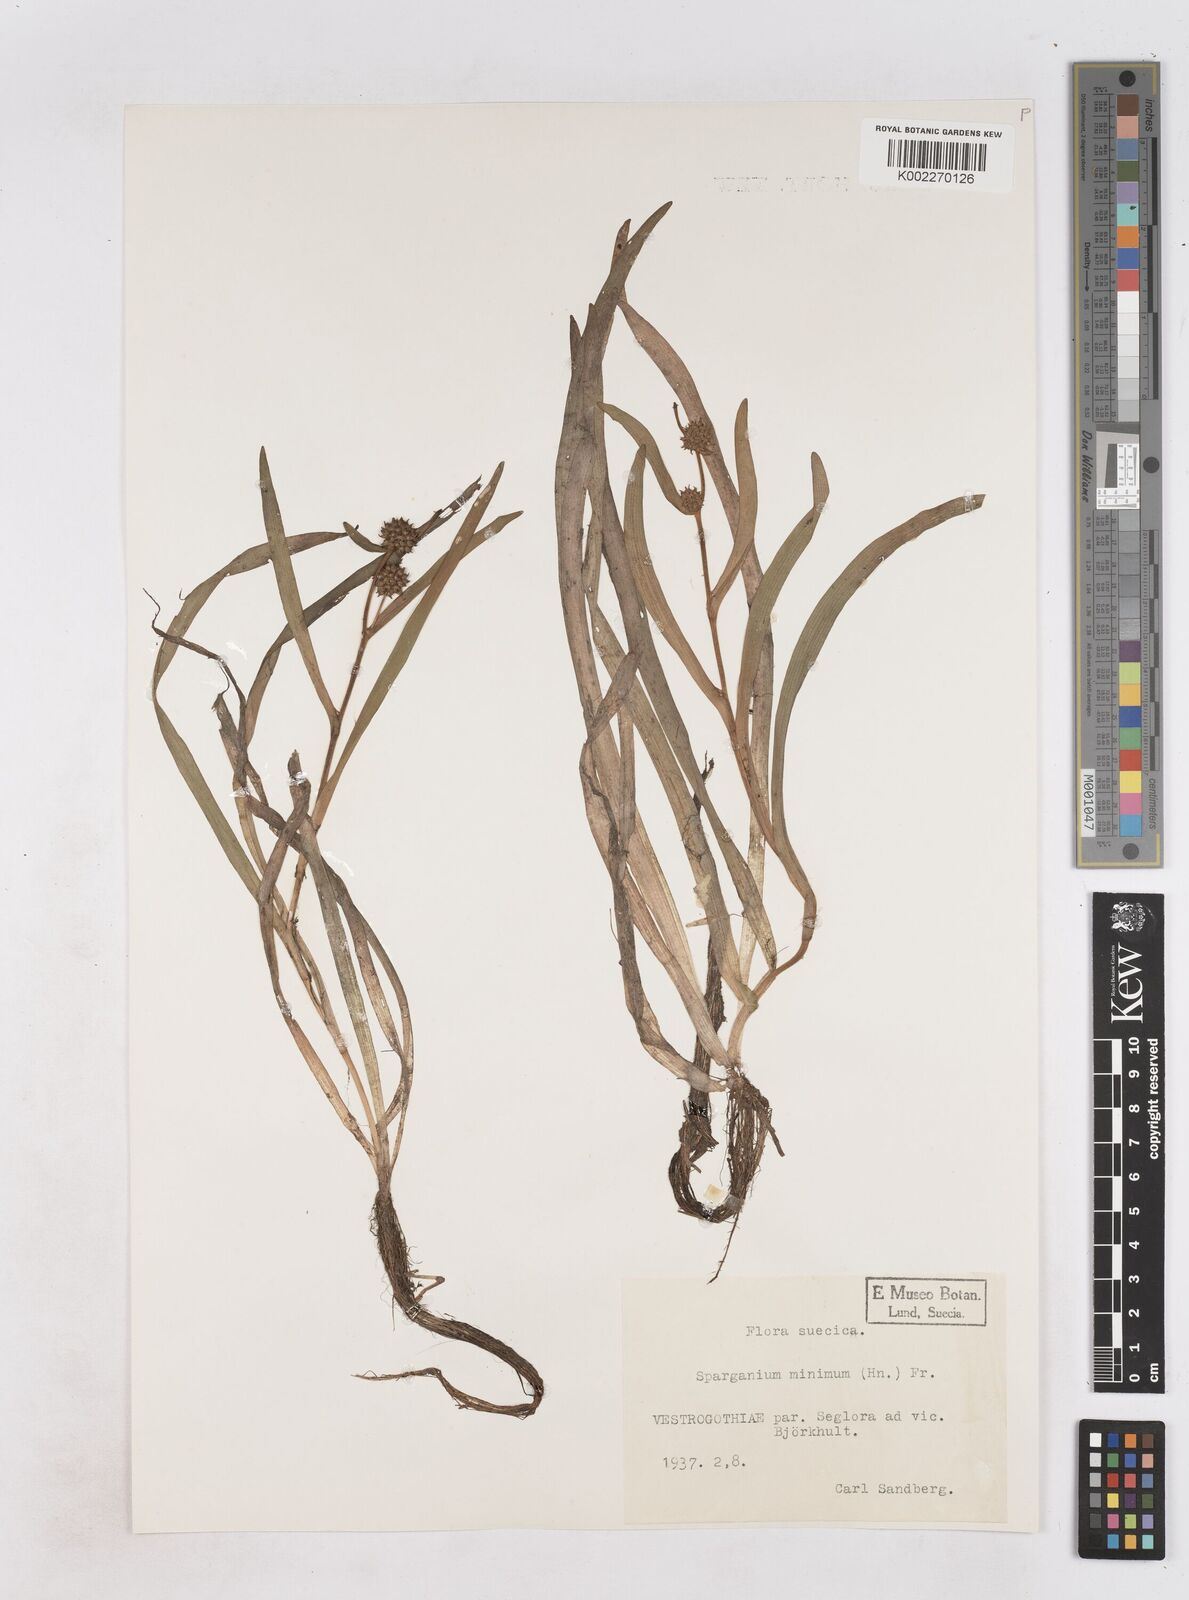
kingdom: Plantae
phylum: Tracheophyta
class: Liliopsida
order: Poales
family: Typhaceae
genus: Sparganium
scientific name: Sparganium natans
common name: Least bur-reed
